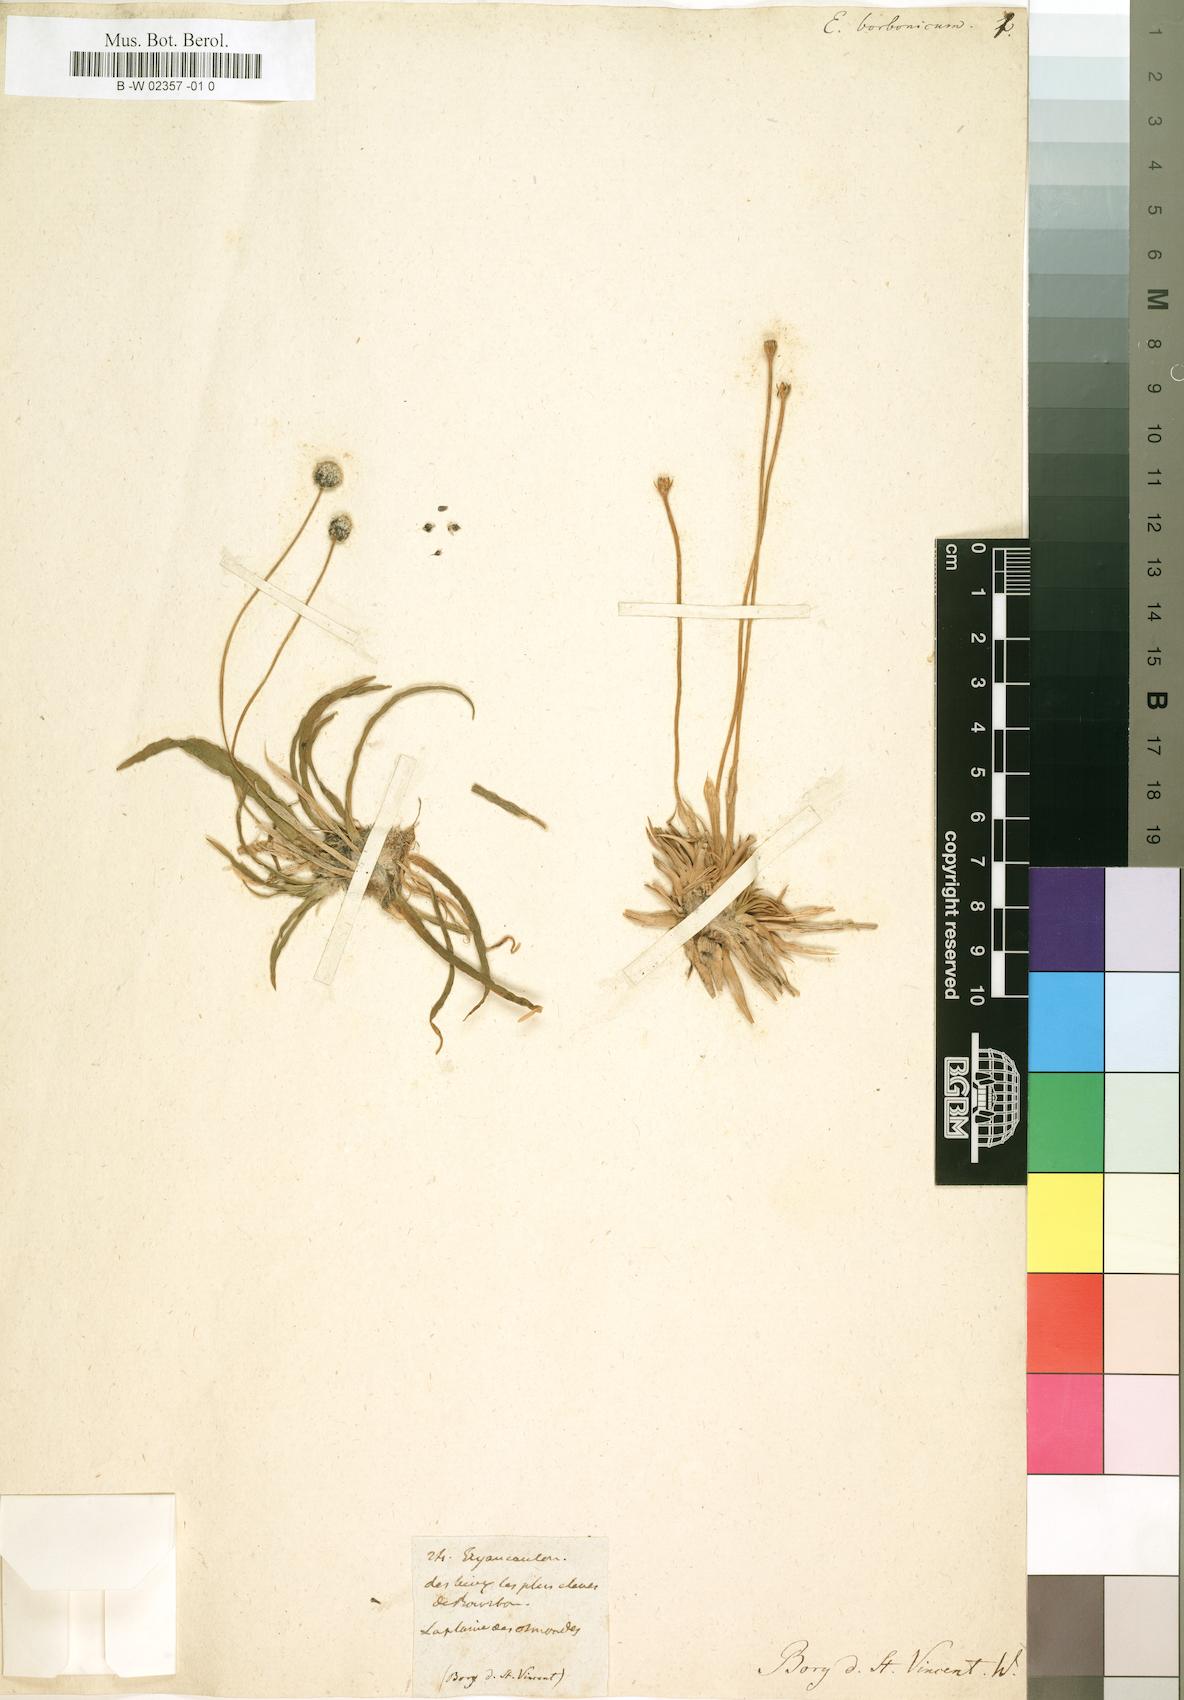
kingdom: Plantae
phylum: Tracheophyta
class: Liliopsida
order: Poales
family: Eriocaulaceae
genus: Eriocaulon
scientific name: Eriocaulon striatum
